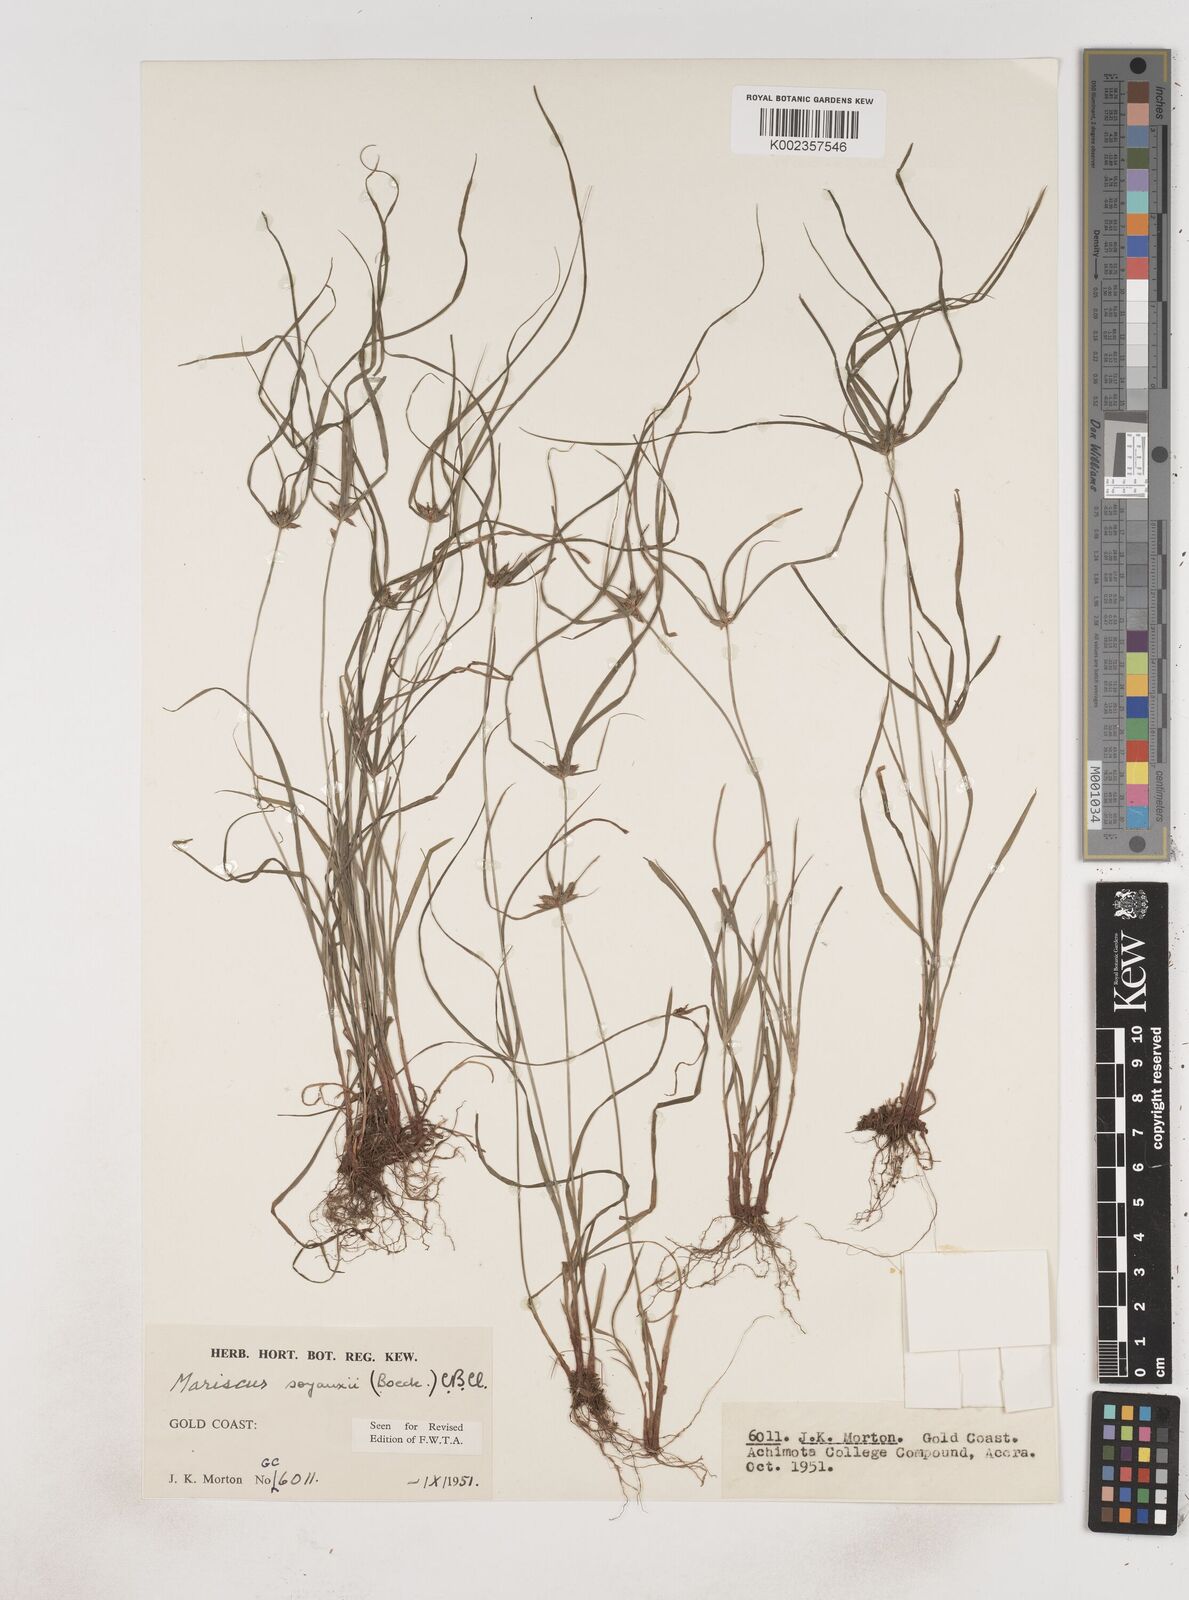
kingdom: Plantae
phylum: Tracheophyta
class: Liliopsida
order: Poales
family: Cyperaceae
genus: Cyperus
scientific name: Cyperus soyauxii
